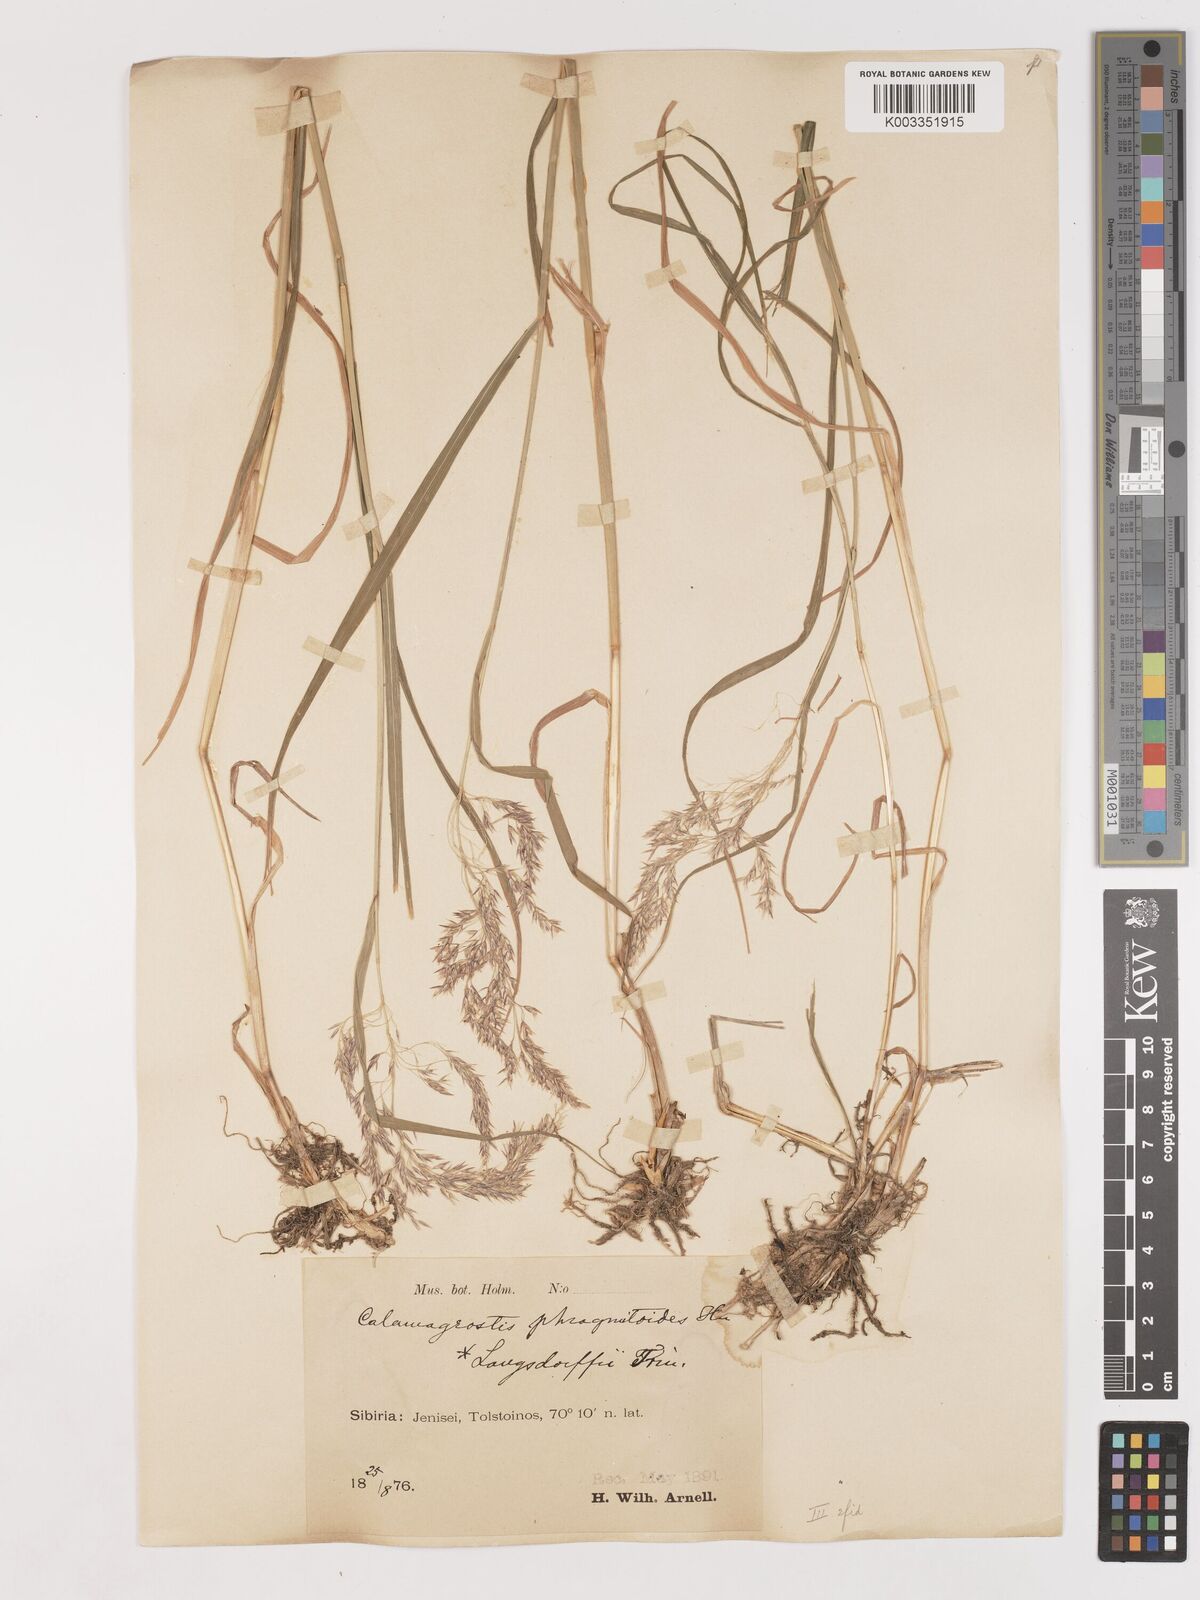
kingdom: Plantae
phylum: Tracheophyta
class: Liliopsida
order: Poales
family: Poaceae
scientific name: Poaceae
